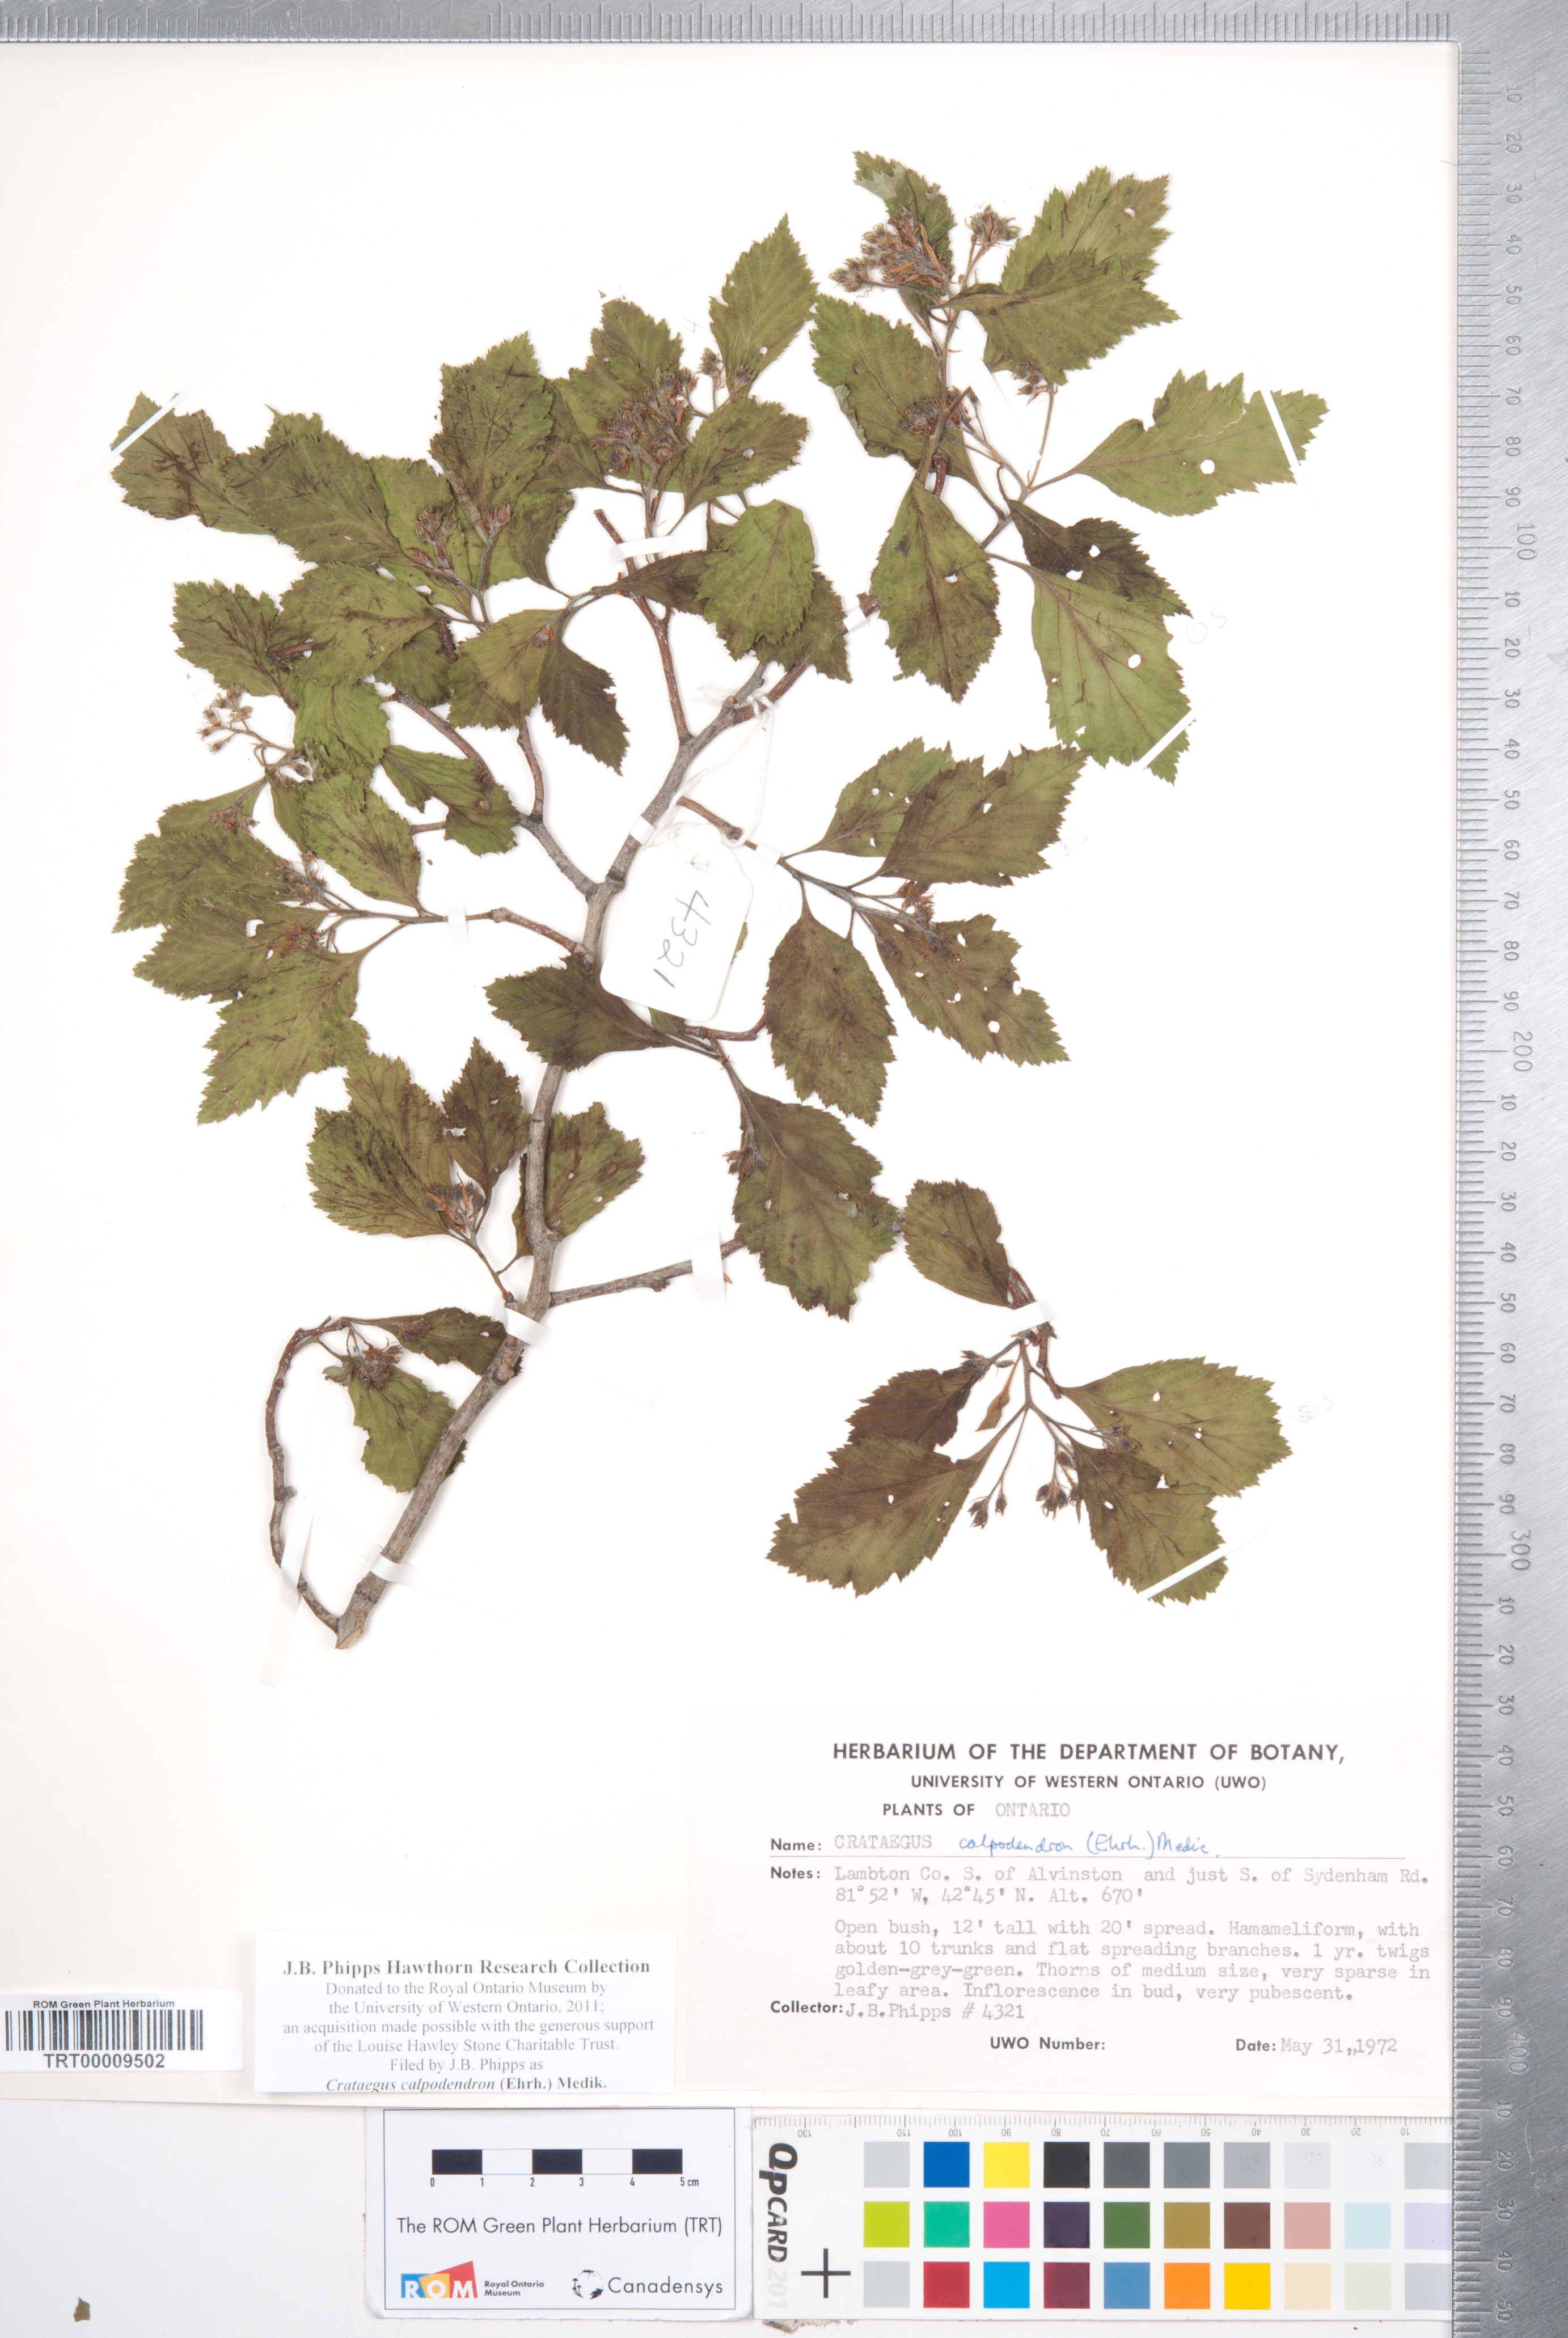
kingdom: Plantae
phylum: Tracheophyta
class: Magnoliopsida
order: Rosales
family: Rosaceae
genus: Crataegus
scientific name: Crataegus calpodendron
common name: Pear hawthorn
